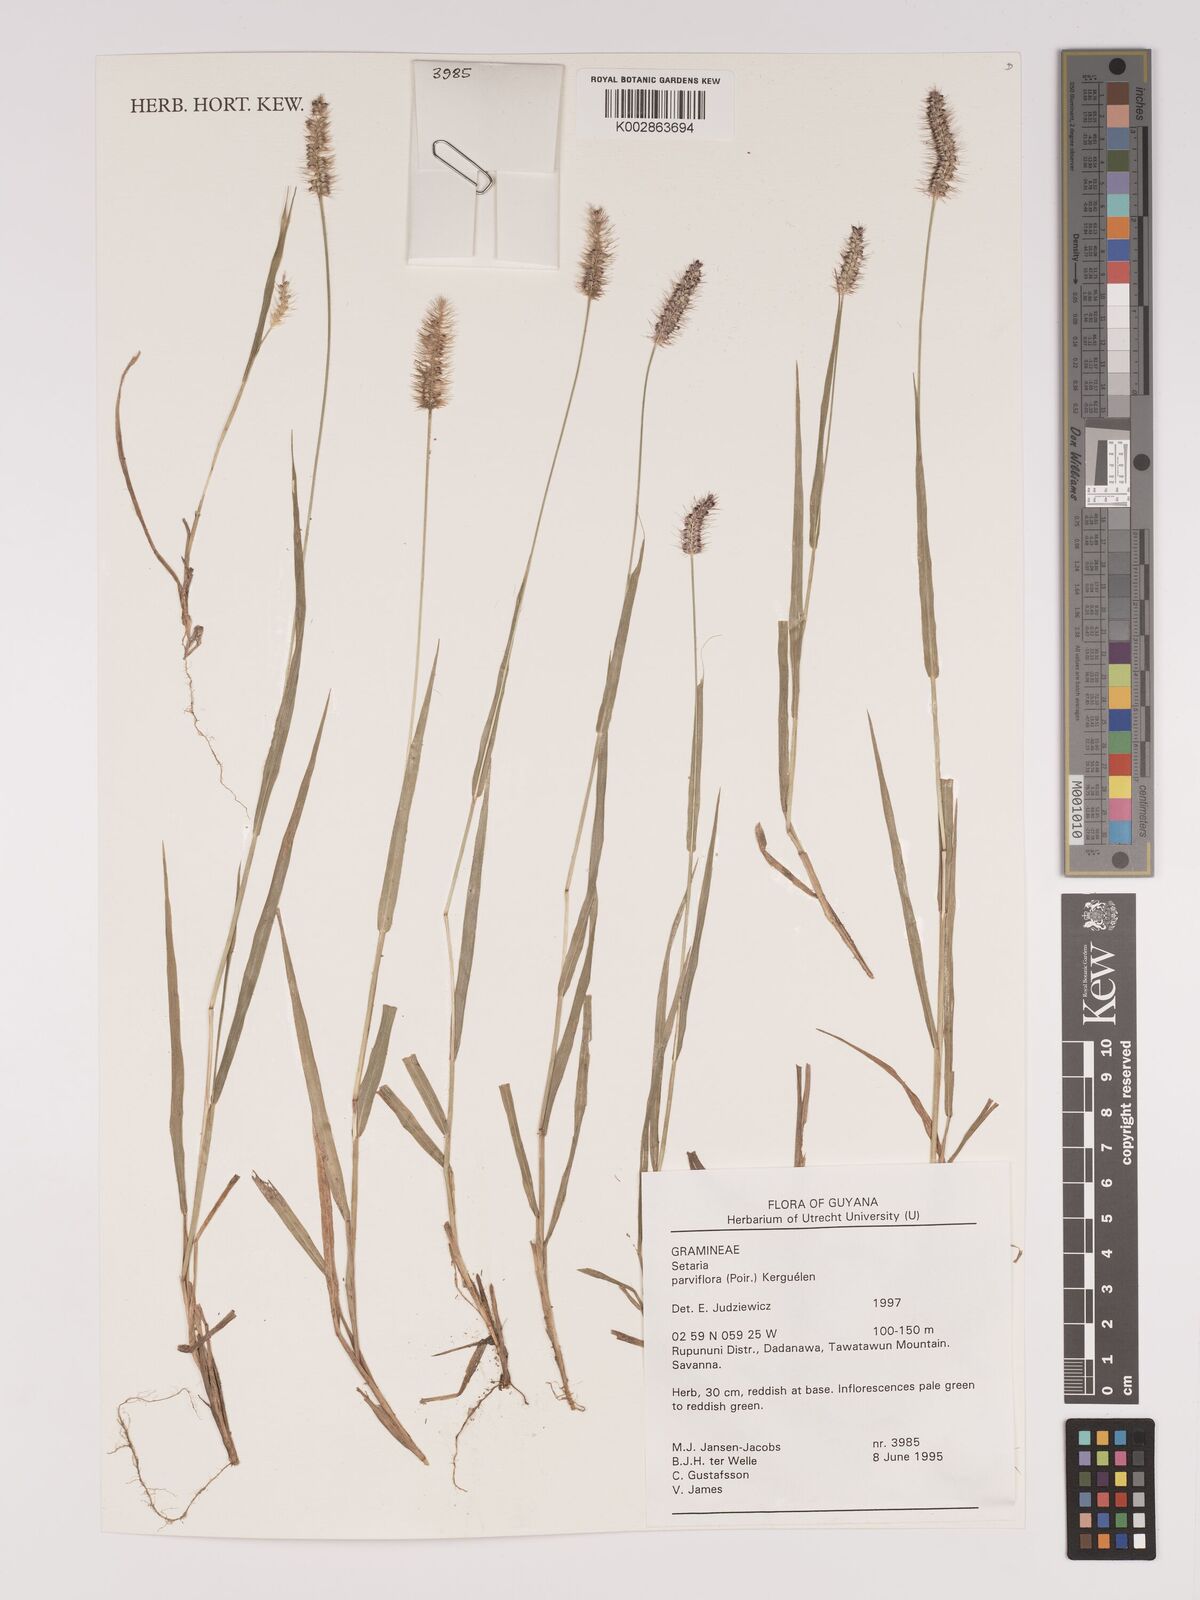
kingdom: Plantae
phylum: Tracheophyta
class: Liliopsida
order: Poales
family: Poaceae
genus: Setaria
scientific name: Setaria parviflora
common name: Knotroot bristle-grass
